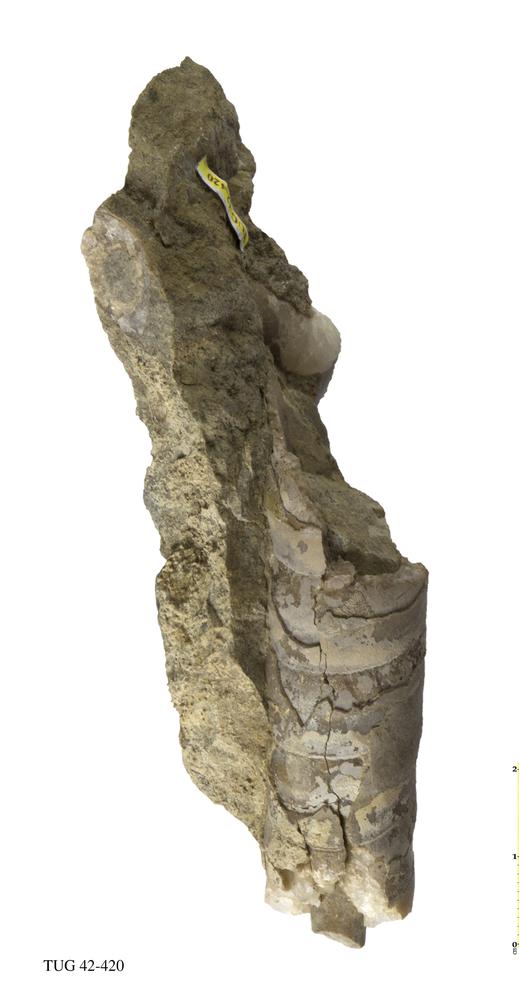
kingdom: Animalia
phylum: Mollusca
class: Cephalopoda
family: Endoceratidae
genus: Proterovaginoceras
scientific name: Proterovaginoceras Endoceras incognitum
